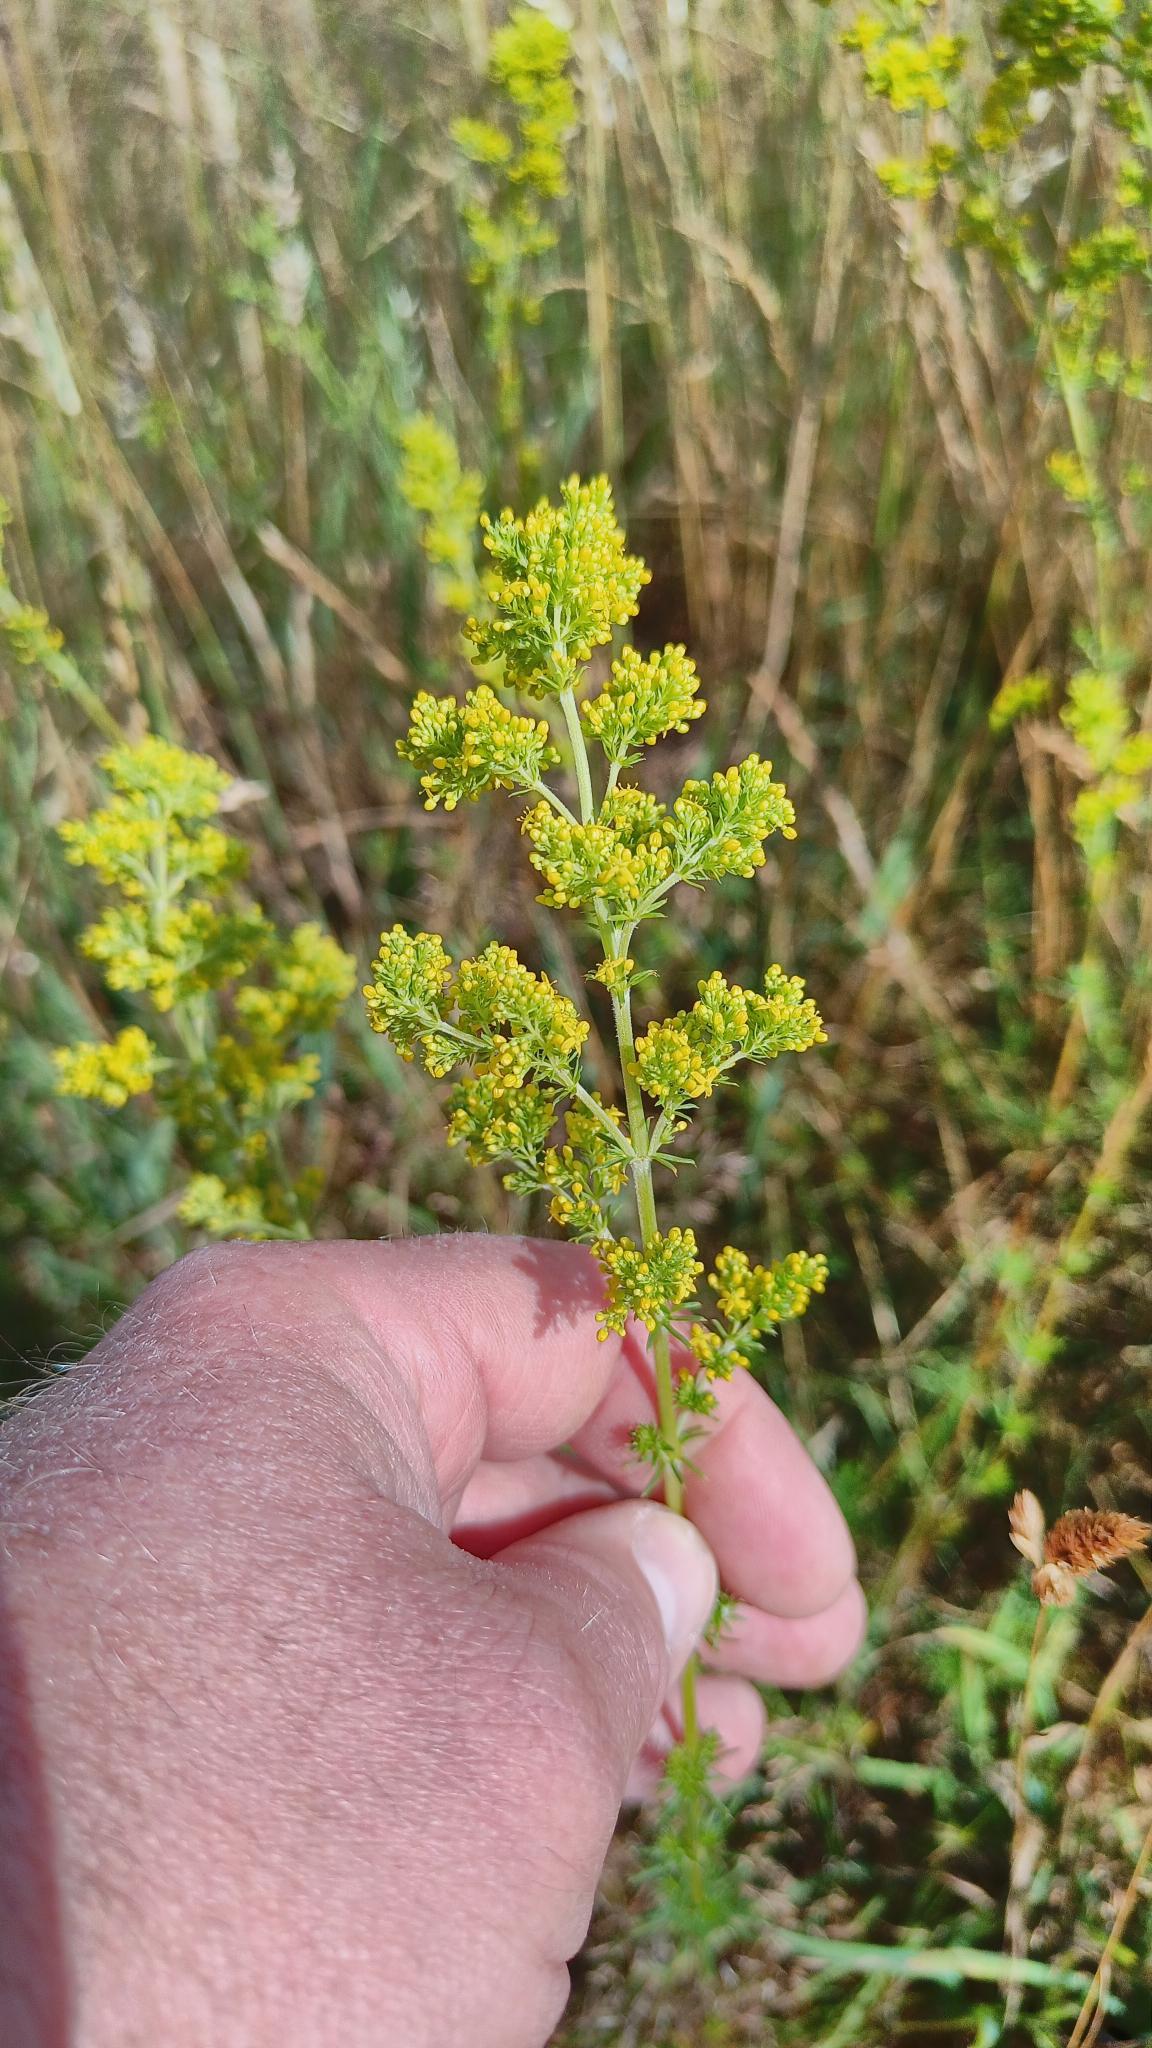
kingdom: Plantae
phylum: Tracheophyta
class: Magnoliopsida
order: Gentianales
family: Rubiaceae
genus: Galium
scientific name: Galium verum
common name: Gul snerre
